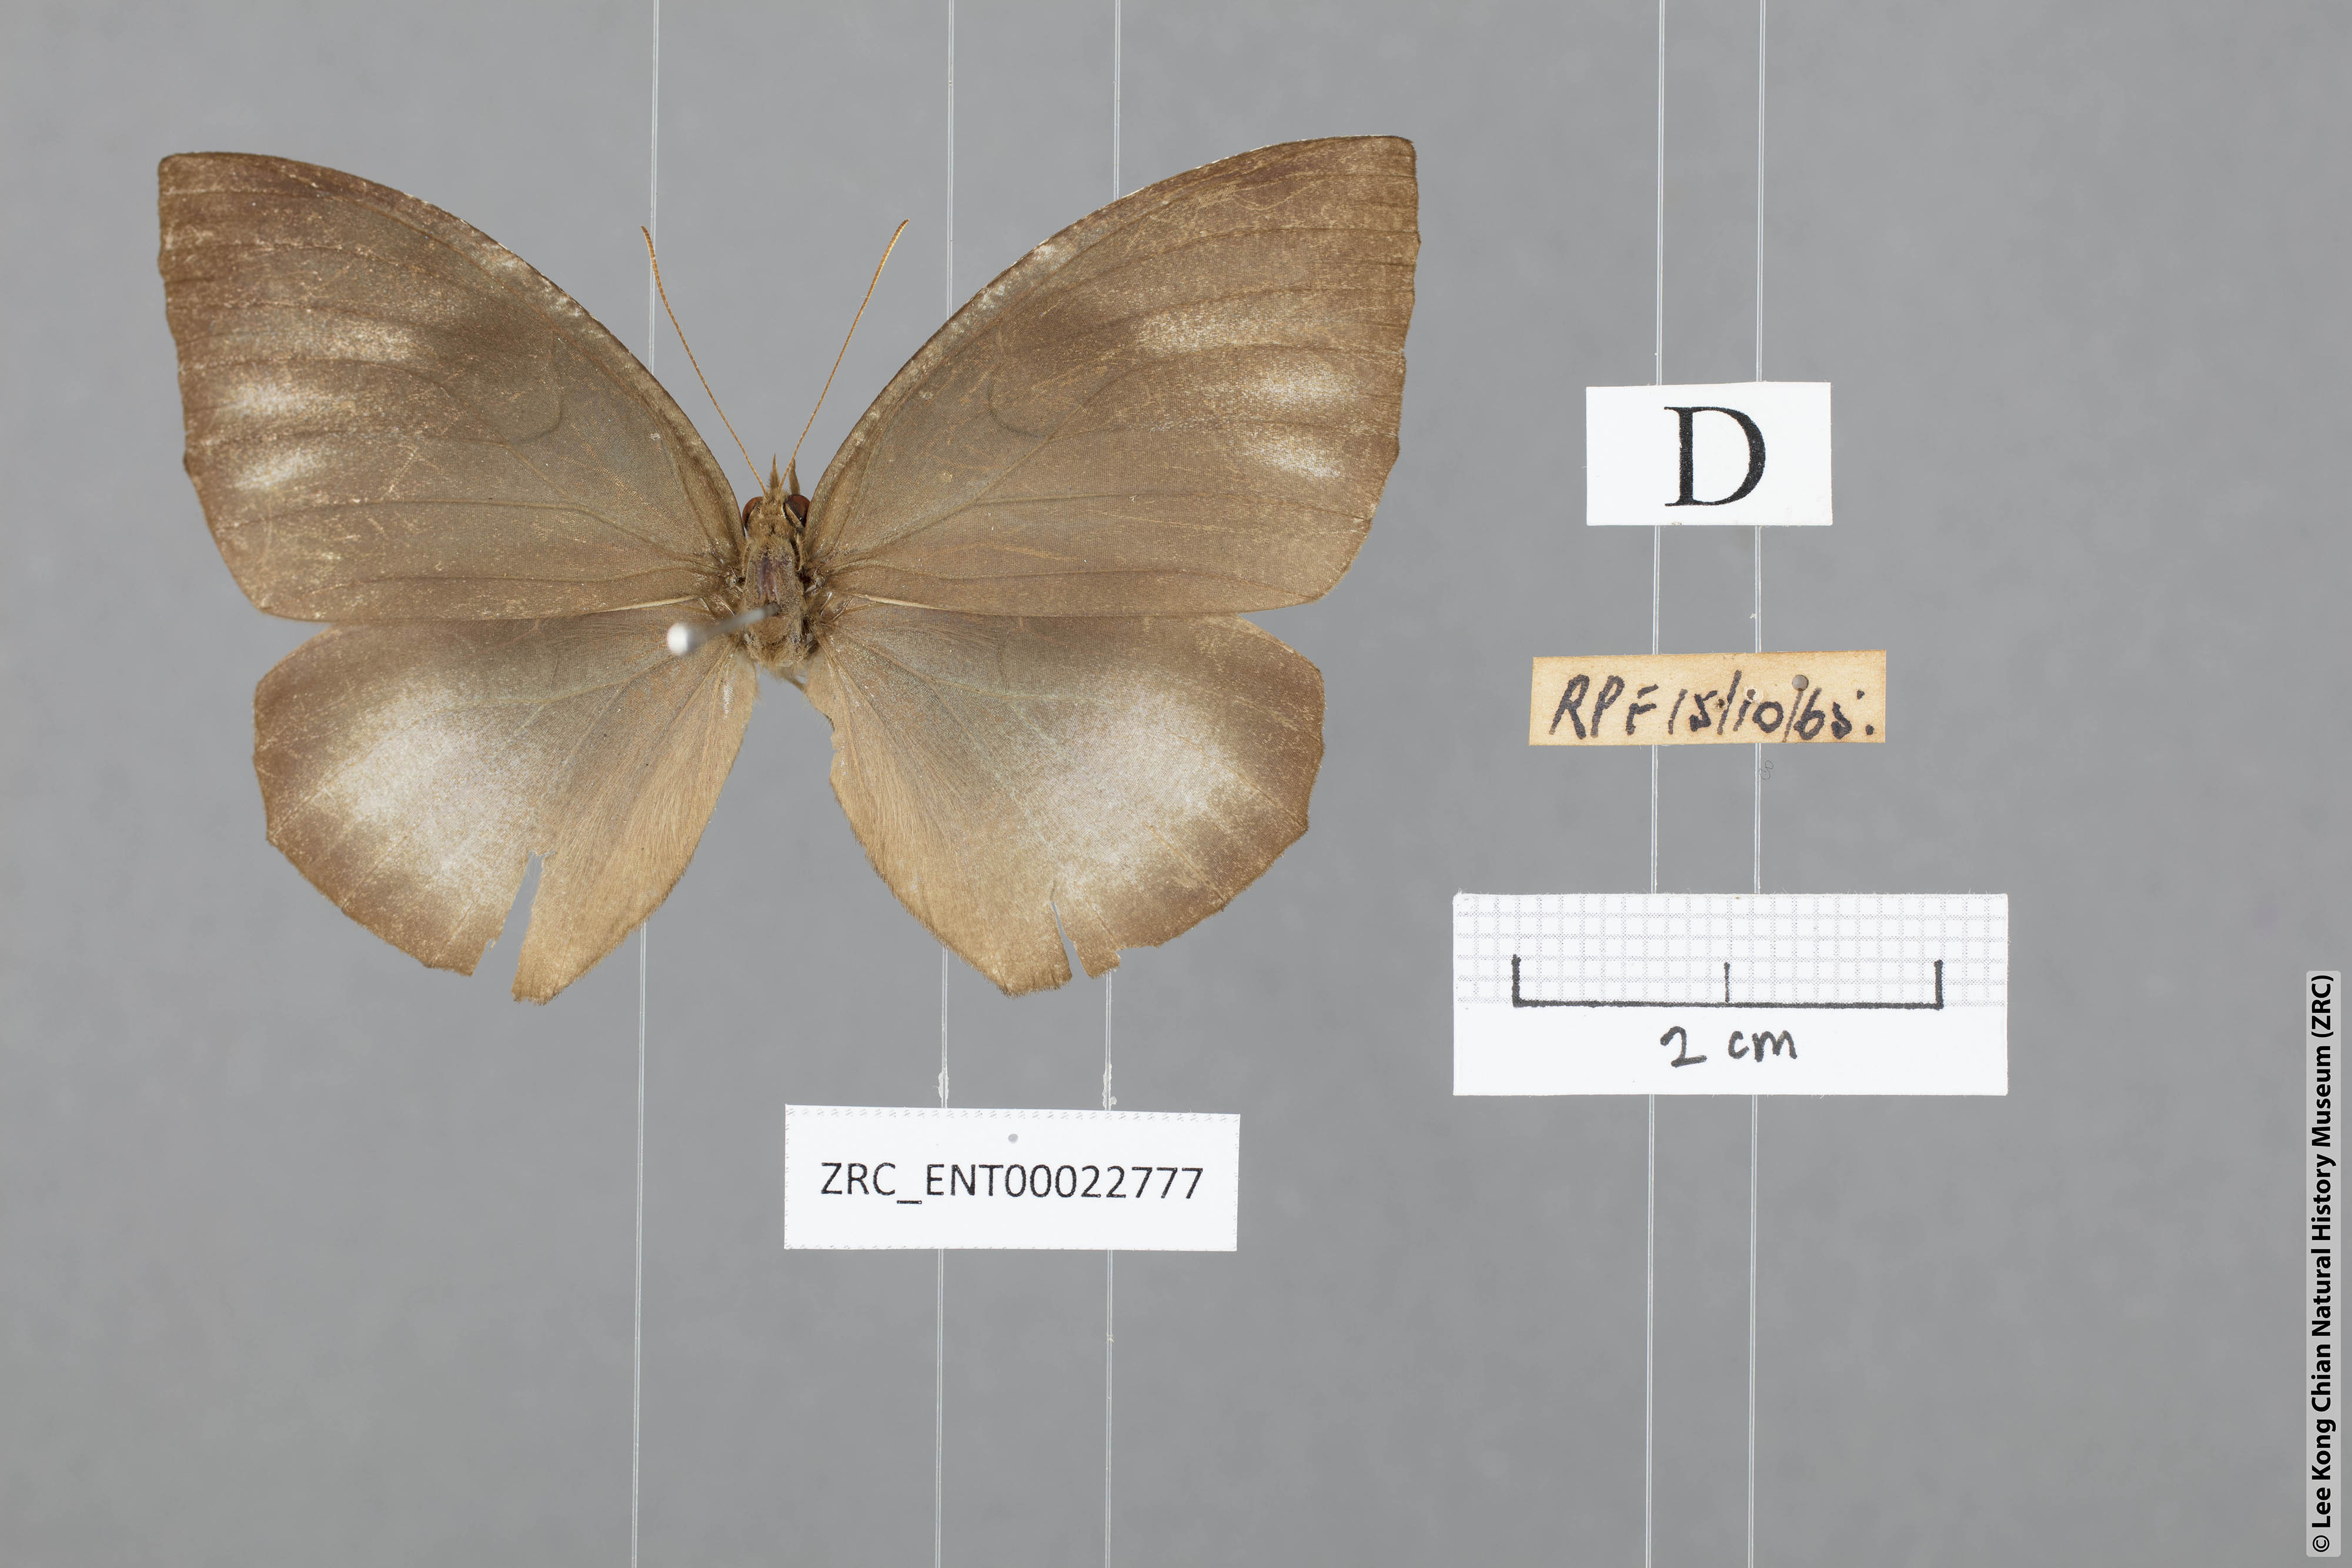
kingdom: Animalia
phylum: Arthropoda
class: Insecta
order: Lepidoptera
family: Nymphalidae
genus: Elymnias
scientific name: Elymnias penanga
